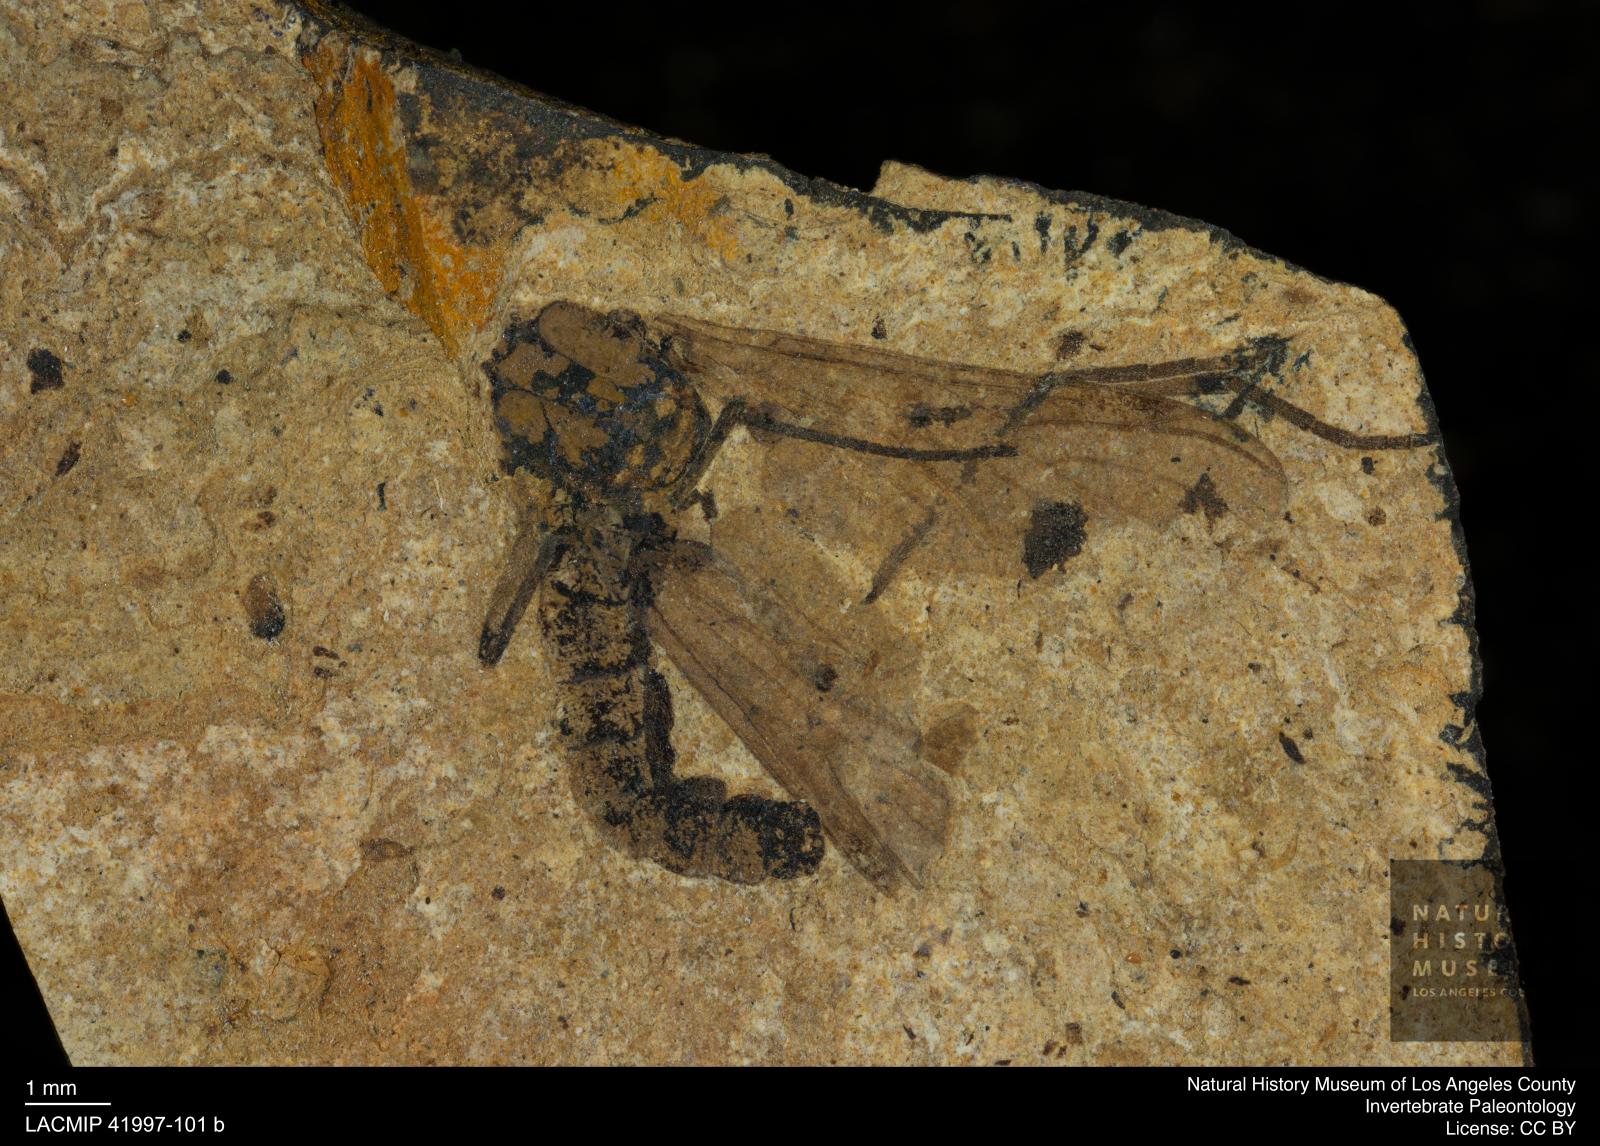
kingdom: Animalia
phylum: Arthropoda
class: Insecta
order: Diptera
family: Bibionidae
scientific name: Bibionidae
